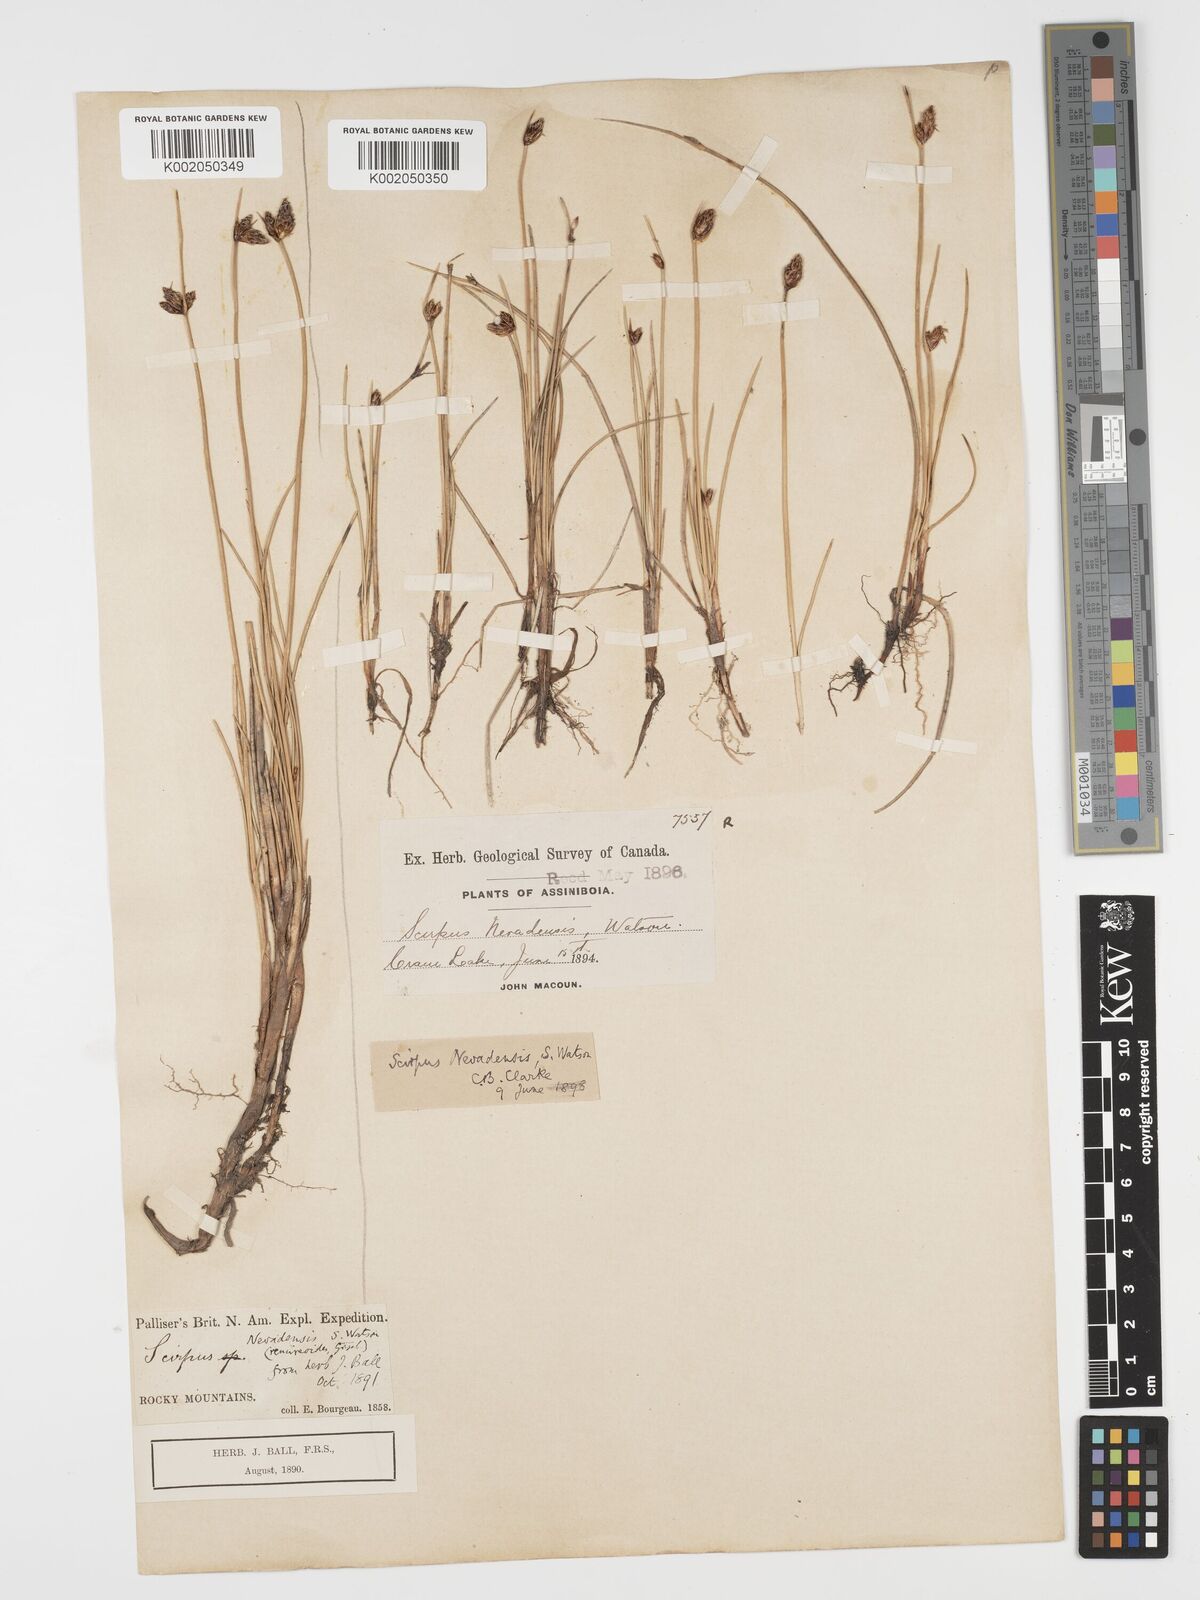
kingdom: Plantae
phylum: Tracheophyta
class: Liliopsida
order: Poales
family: Cyperaceae
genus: Amphiscirpus
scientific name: Amphiscirpus nevadensis
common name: Nevada bulrush
